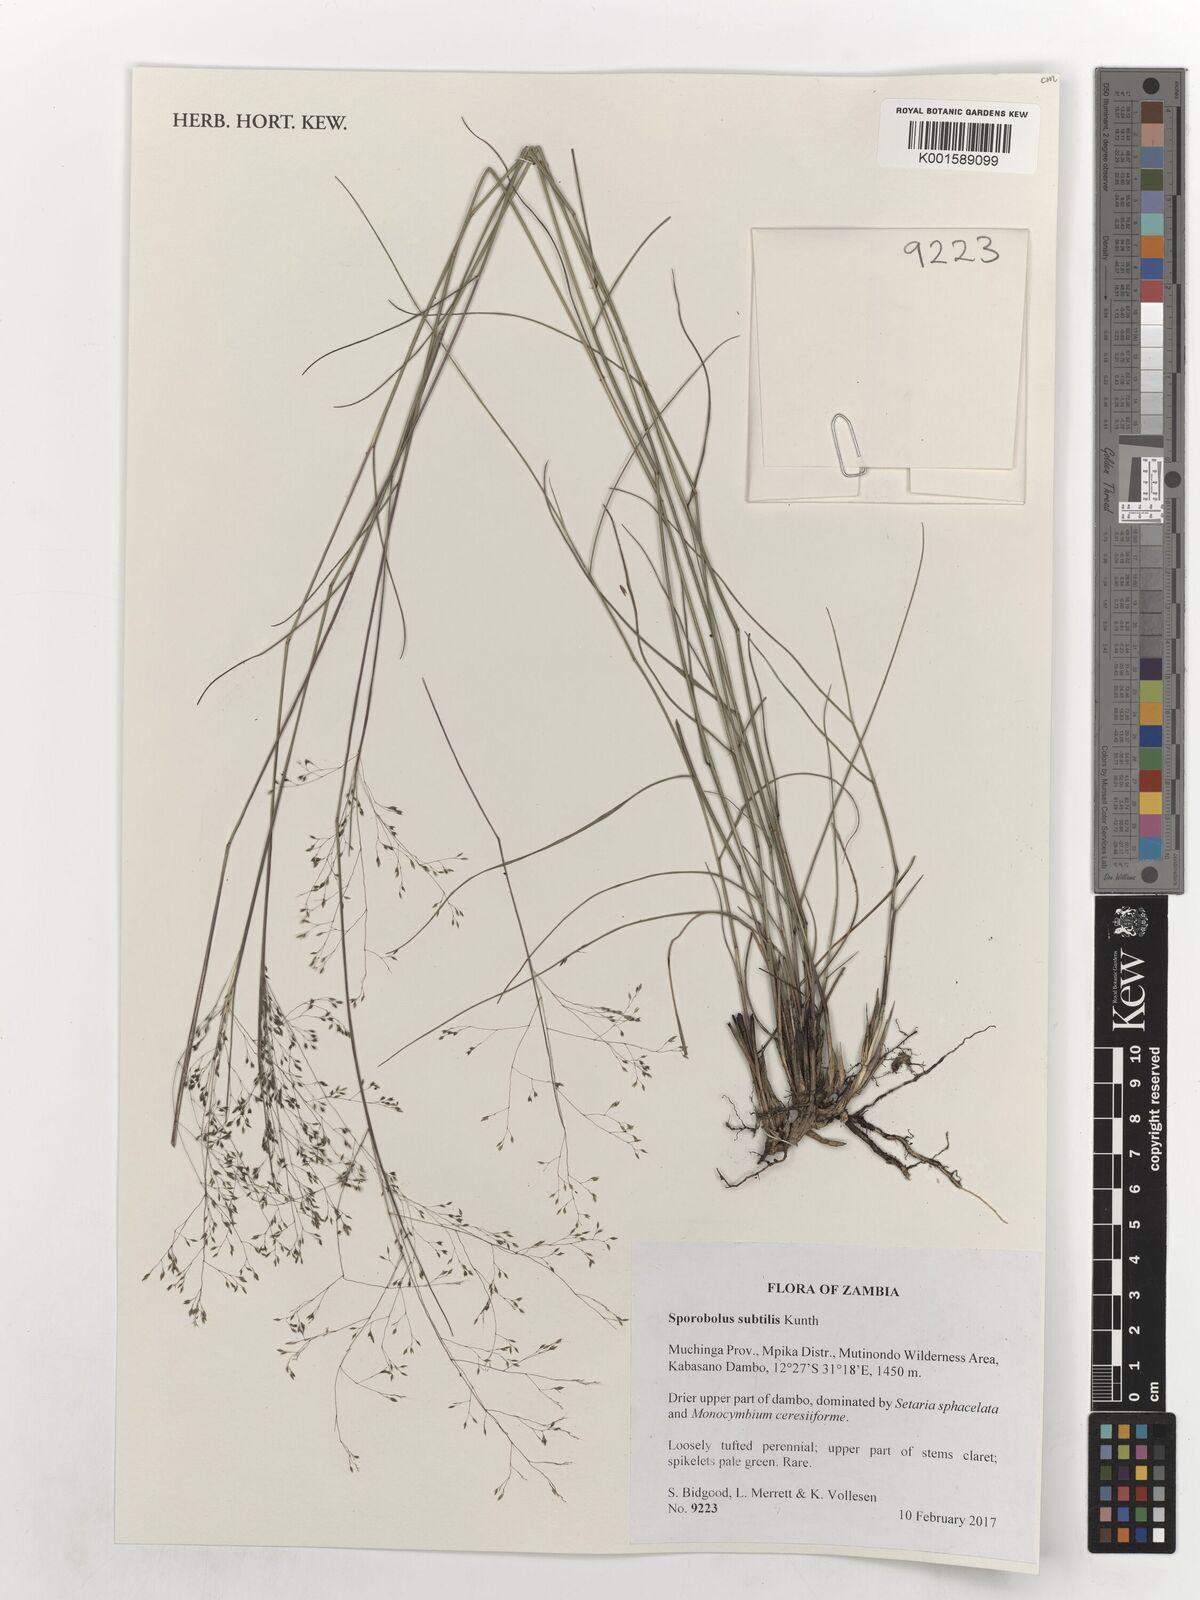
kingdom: Plantae
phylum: Tracheophyta
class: Liliopsida
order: Poales
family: Poaceae
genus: Sporobolus
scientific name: Sporobolus subtilis
